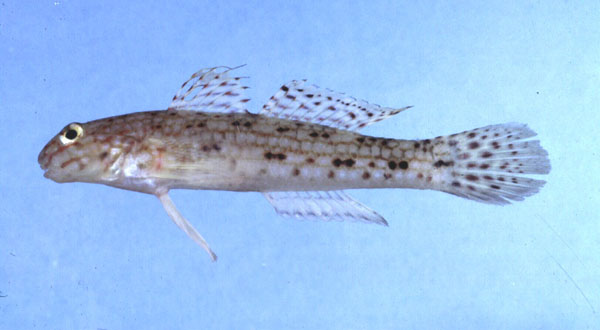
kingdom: Animalia
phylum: Chordata
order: Perciformes
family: Gobiidae
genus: Istigobius
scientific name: Istigobius decoratus
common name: Decorated goby
